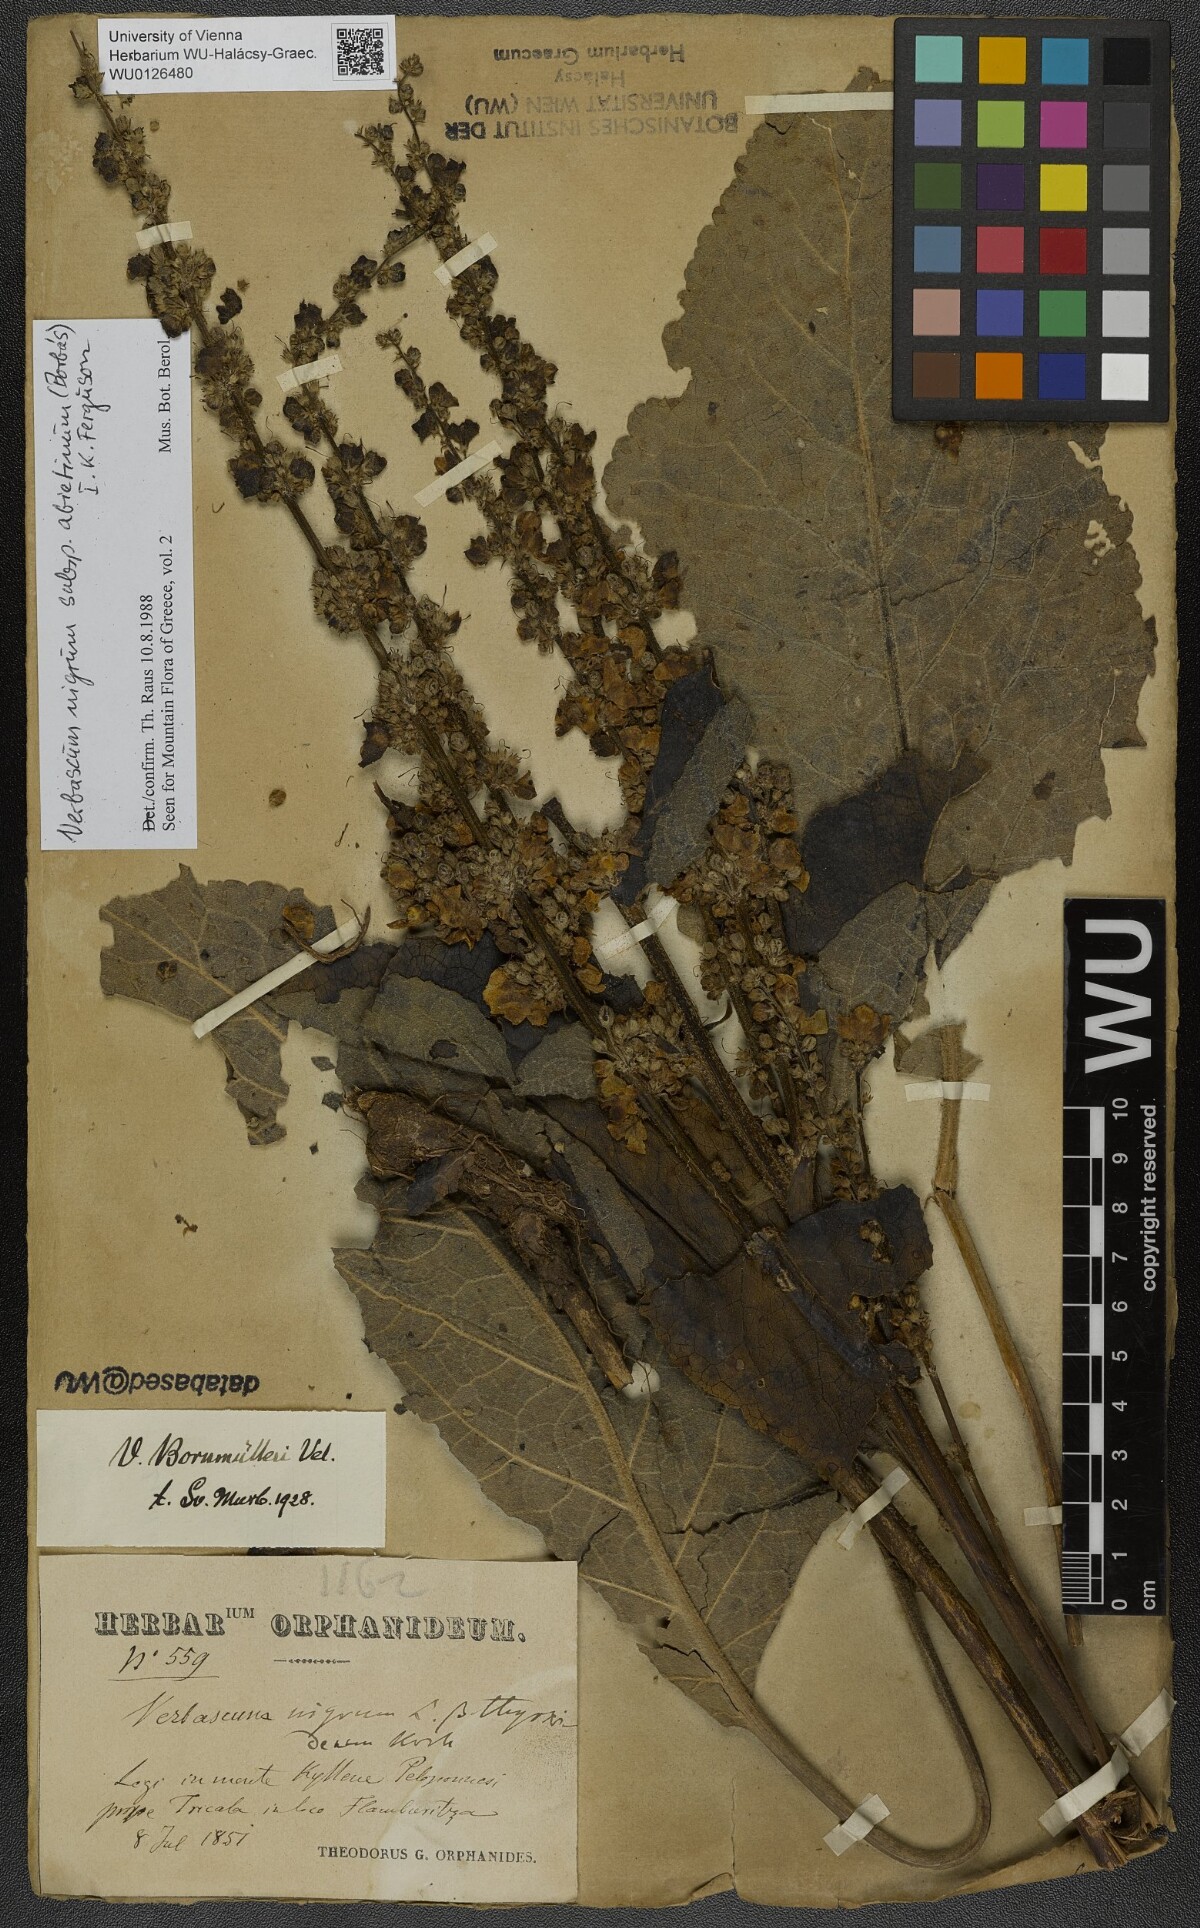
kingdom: Plantae
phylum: Tracheophyta
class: Magnoliopsida
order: Lamiales
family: Scrophulariaceae
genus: Verbascum
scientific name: Verbascum nigrum
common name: Dark mullein
